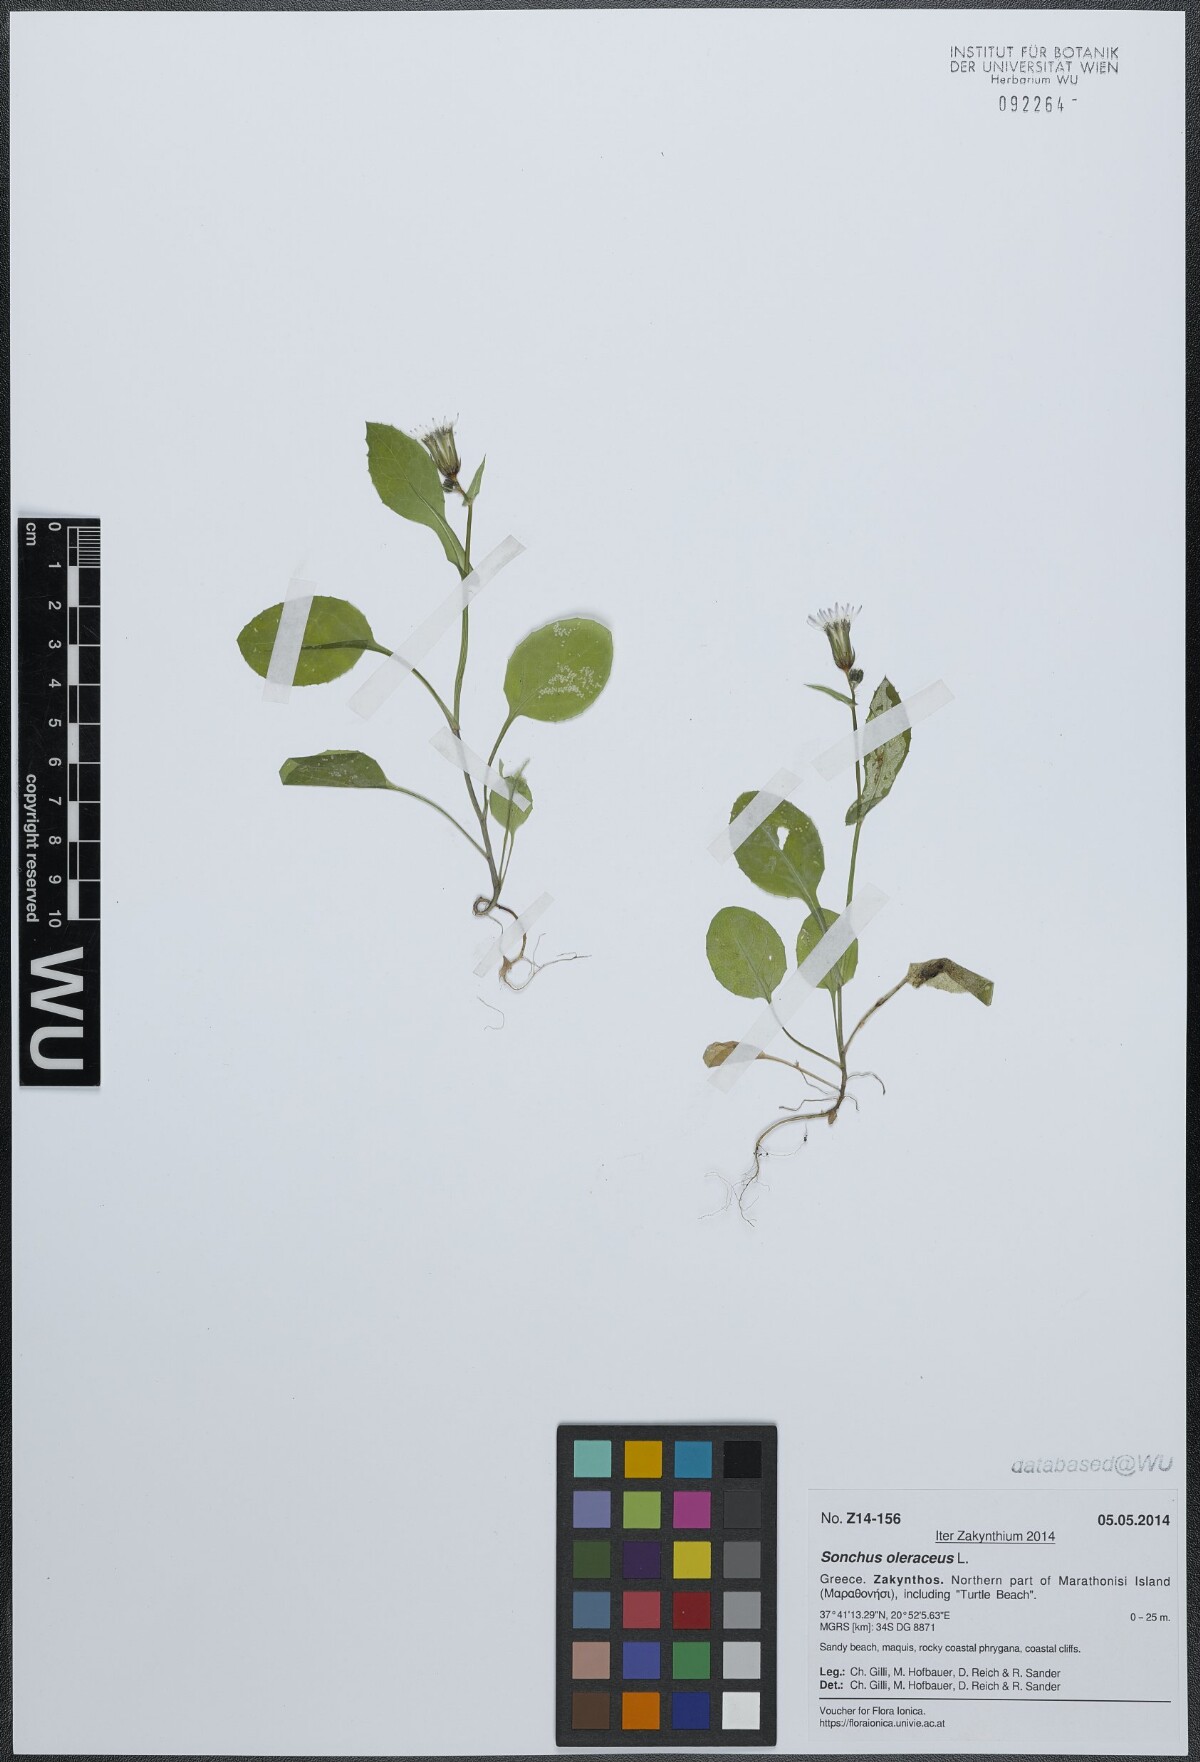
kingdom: Plantae
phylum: Tracheophyta
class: Magnoliopsida
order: Asterales
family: Asteraceae
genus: Sonchus
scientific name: Sonchus oleraceus
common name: Common sowthistle
